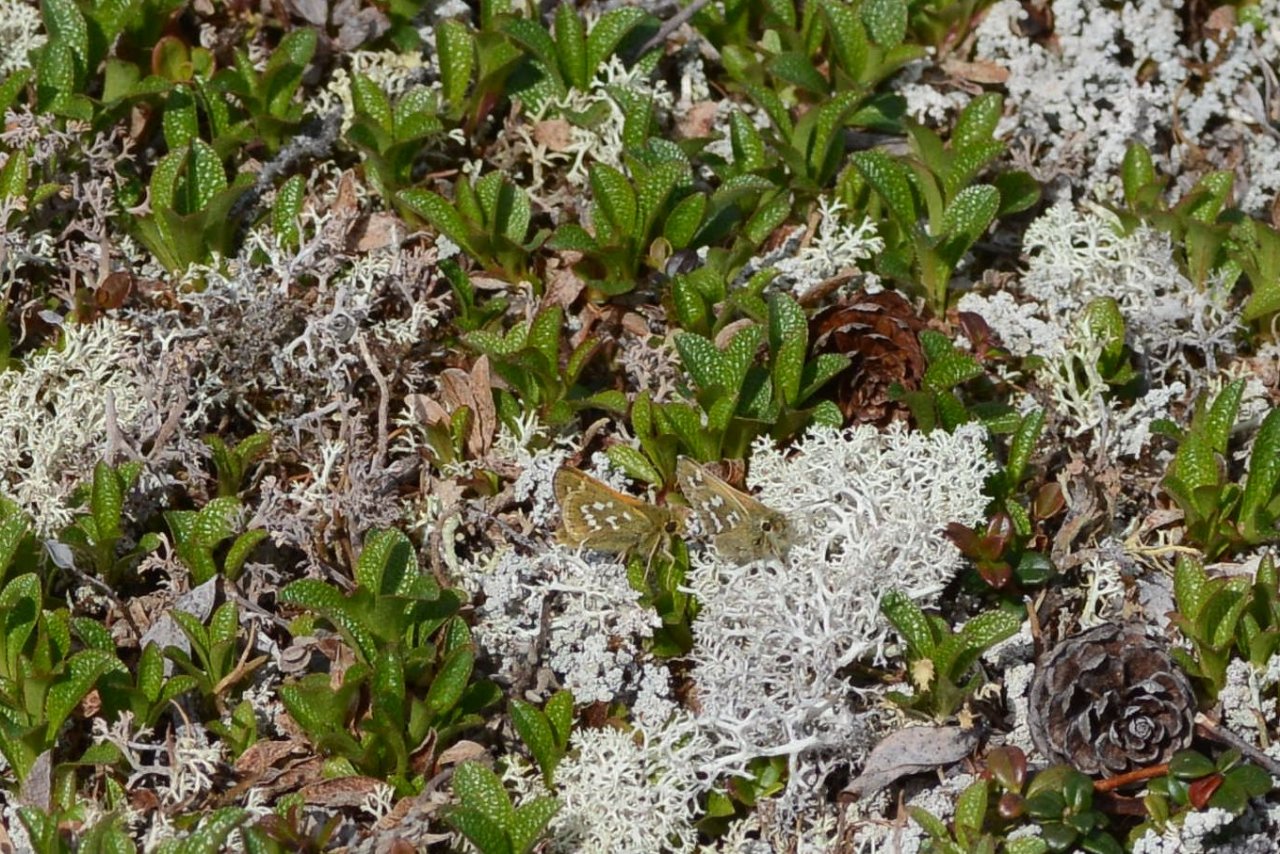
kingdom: Animalia
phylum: Arthropoda
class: Insecta
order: Lepidoptera
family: Hesperiidae
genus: Hesperia
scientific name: Hesperia comma
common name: Common Branded Skipper
